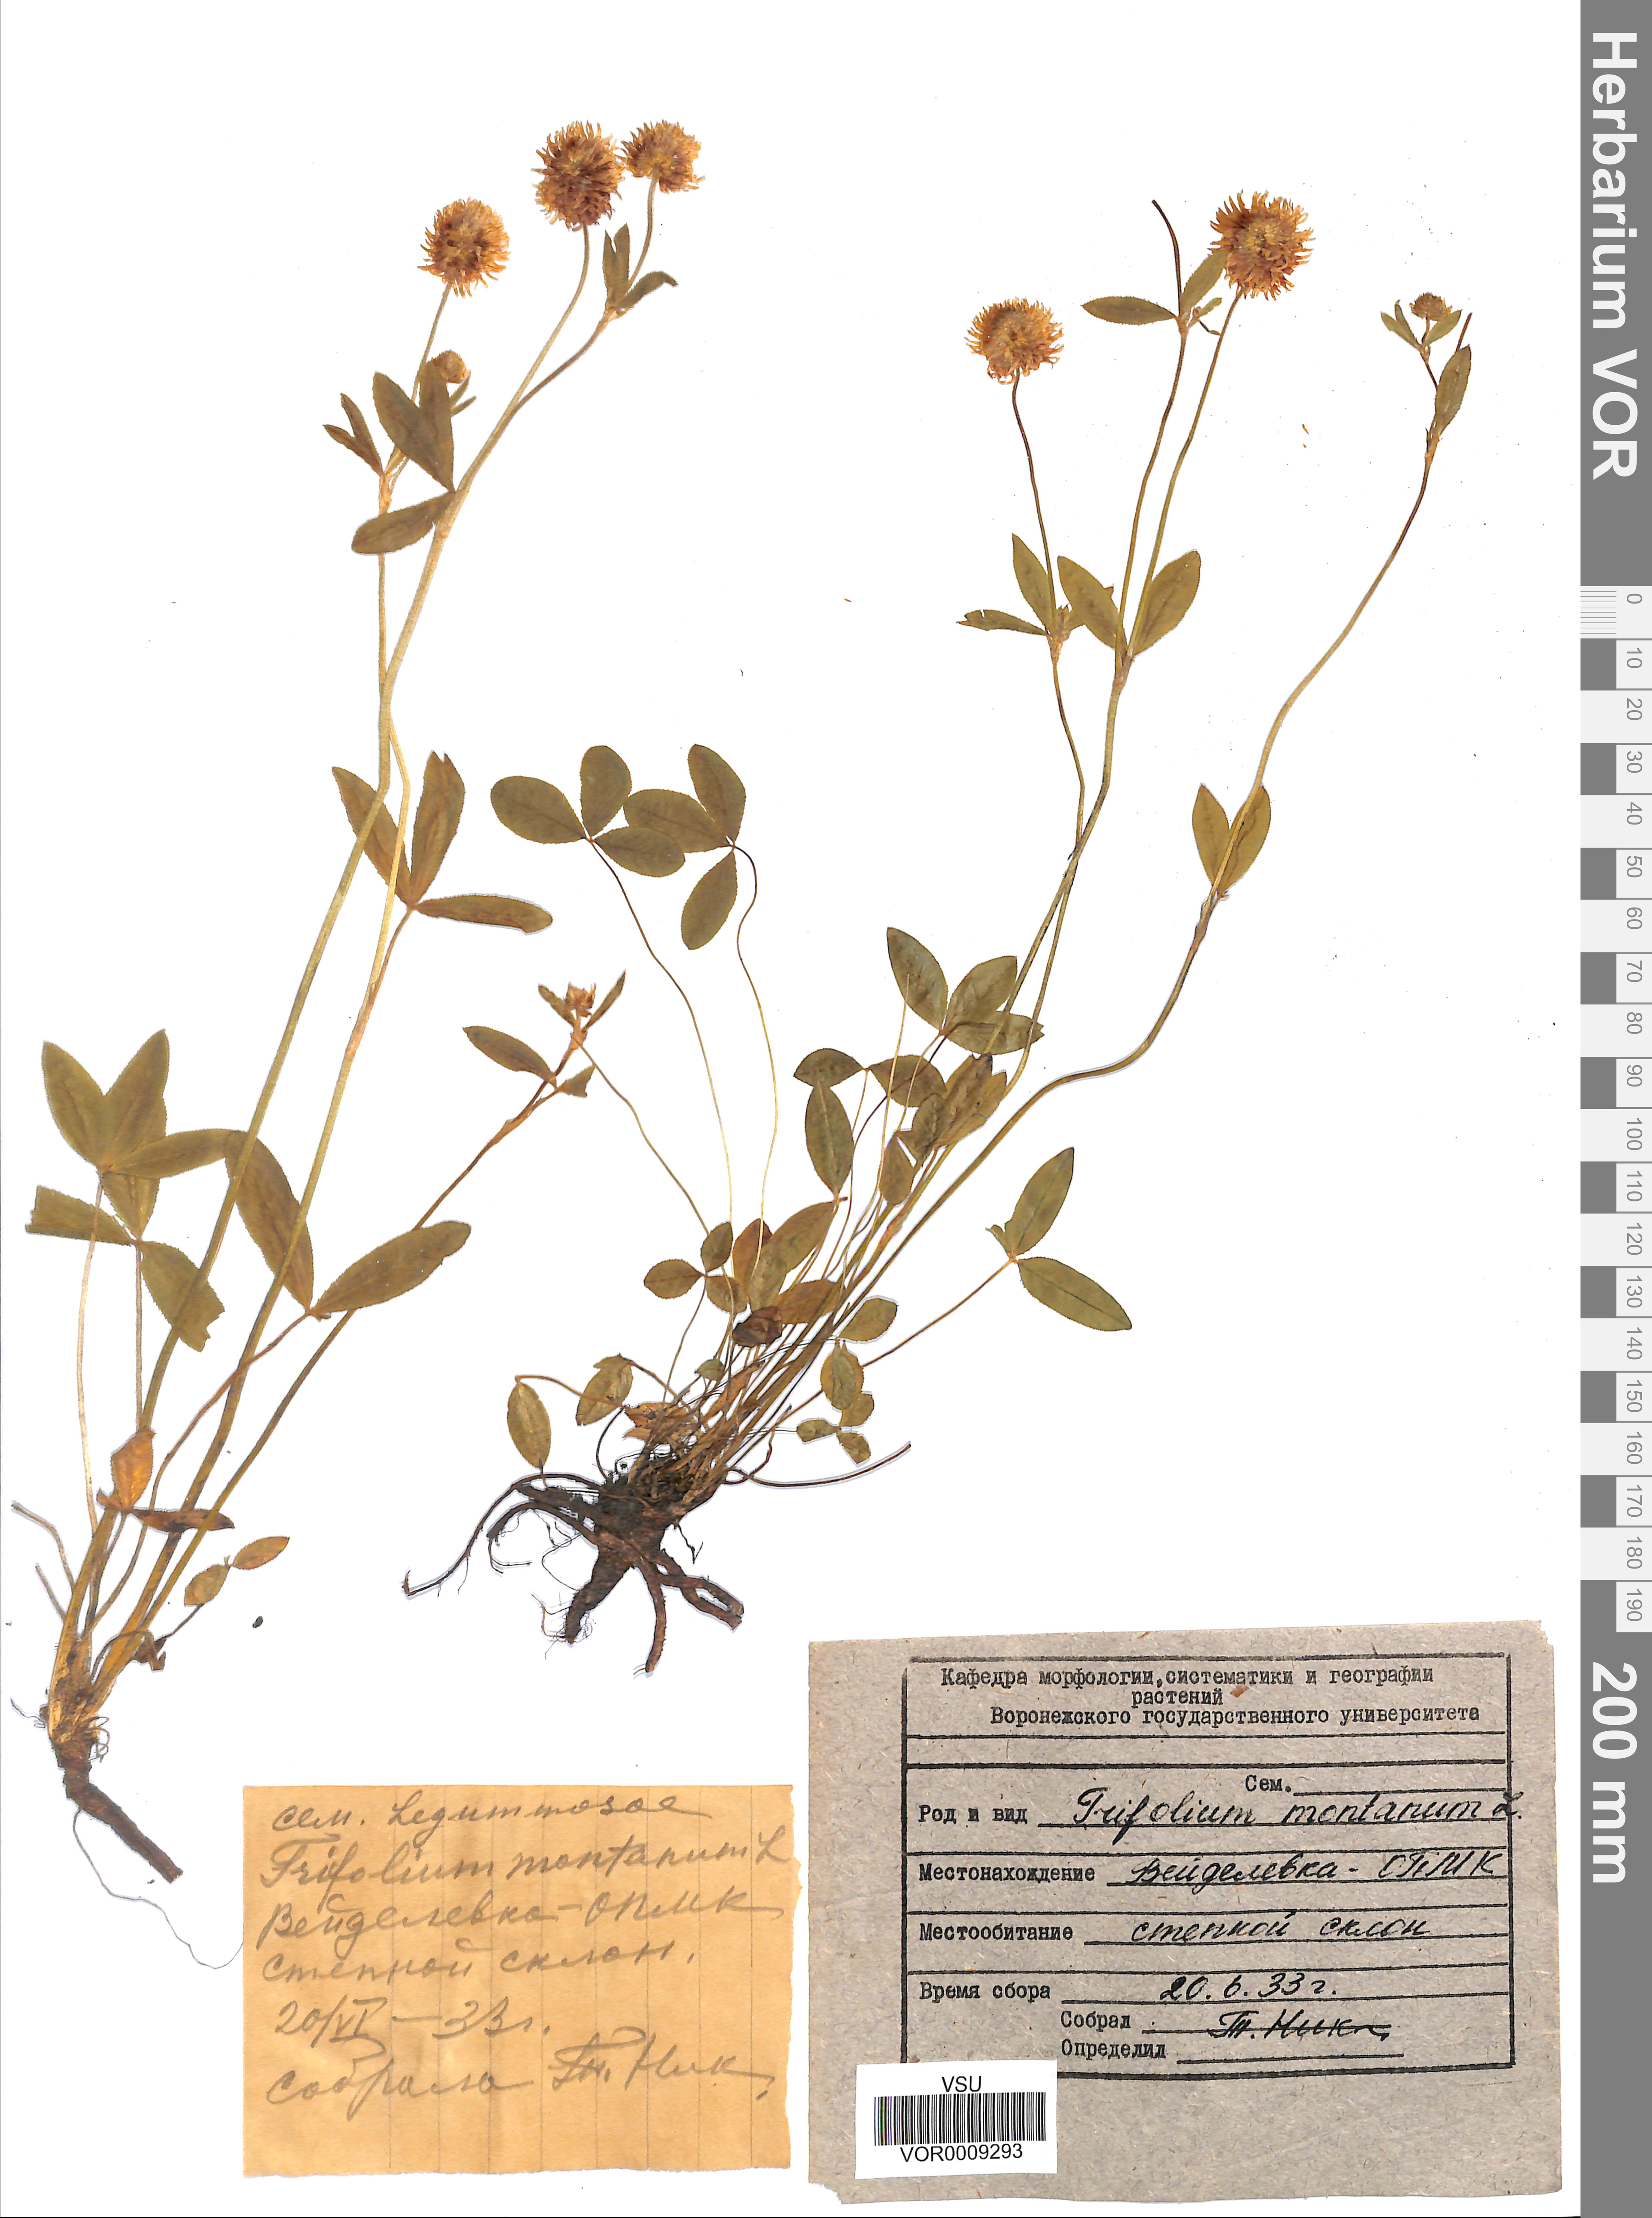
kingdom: Plantae
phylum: Tracheophyta
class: Magnoliopsida
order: Fabales
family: Fabaceae
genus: Trifolium
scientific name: Trifolium montanum
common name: Mountain clover
